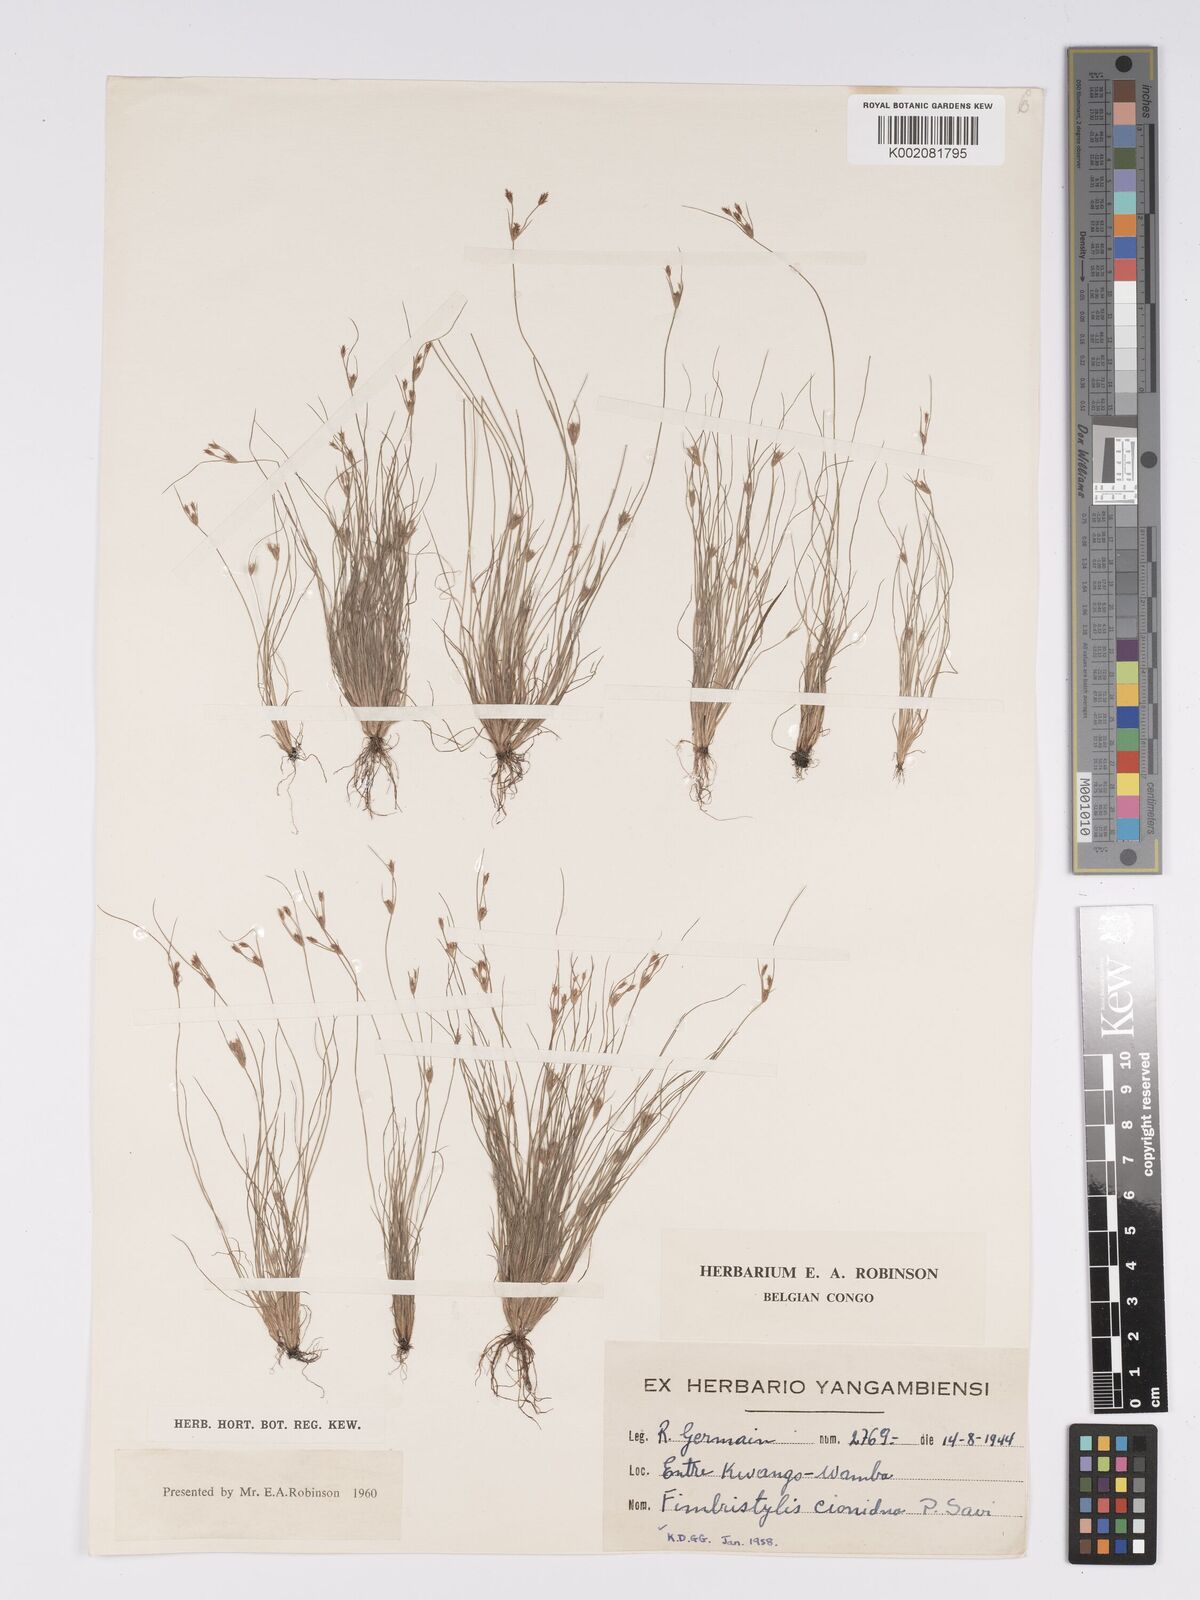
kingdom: Plantae
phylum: Tracheophyta
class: Liliopsida
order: Poales
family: Cyperaceae
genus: Bulbostylis
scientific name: Bulbostylis cioniana
